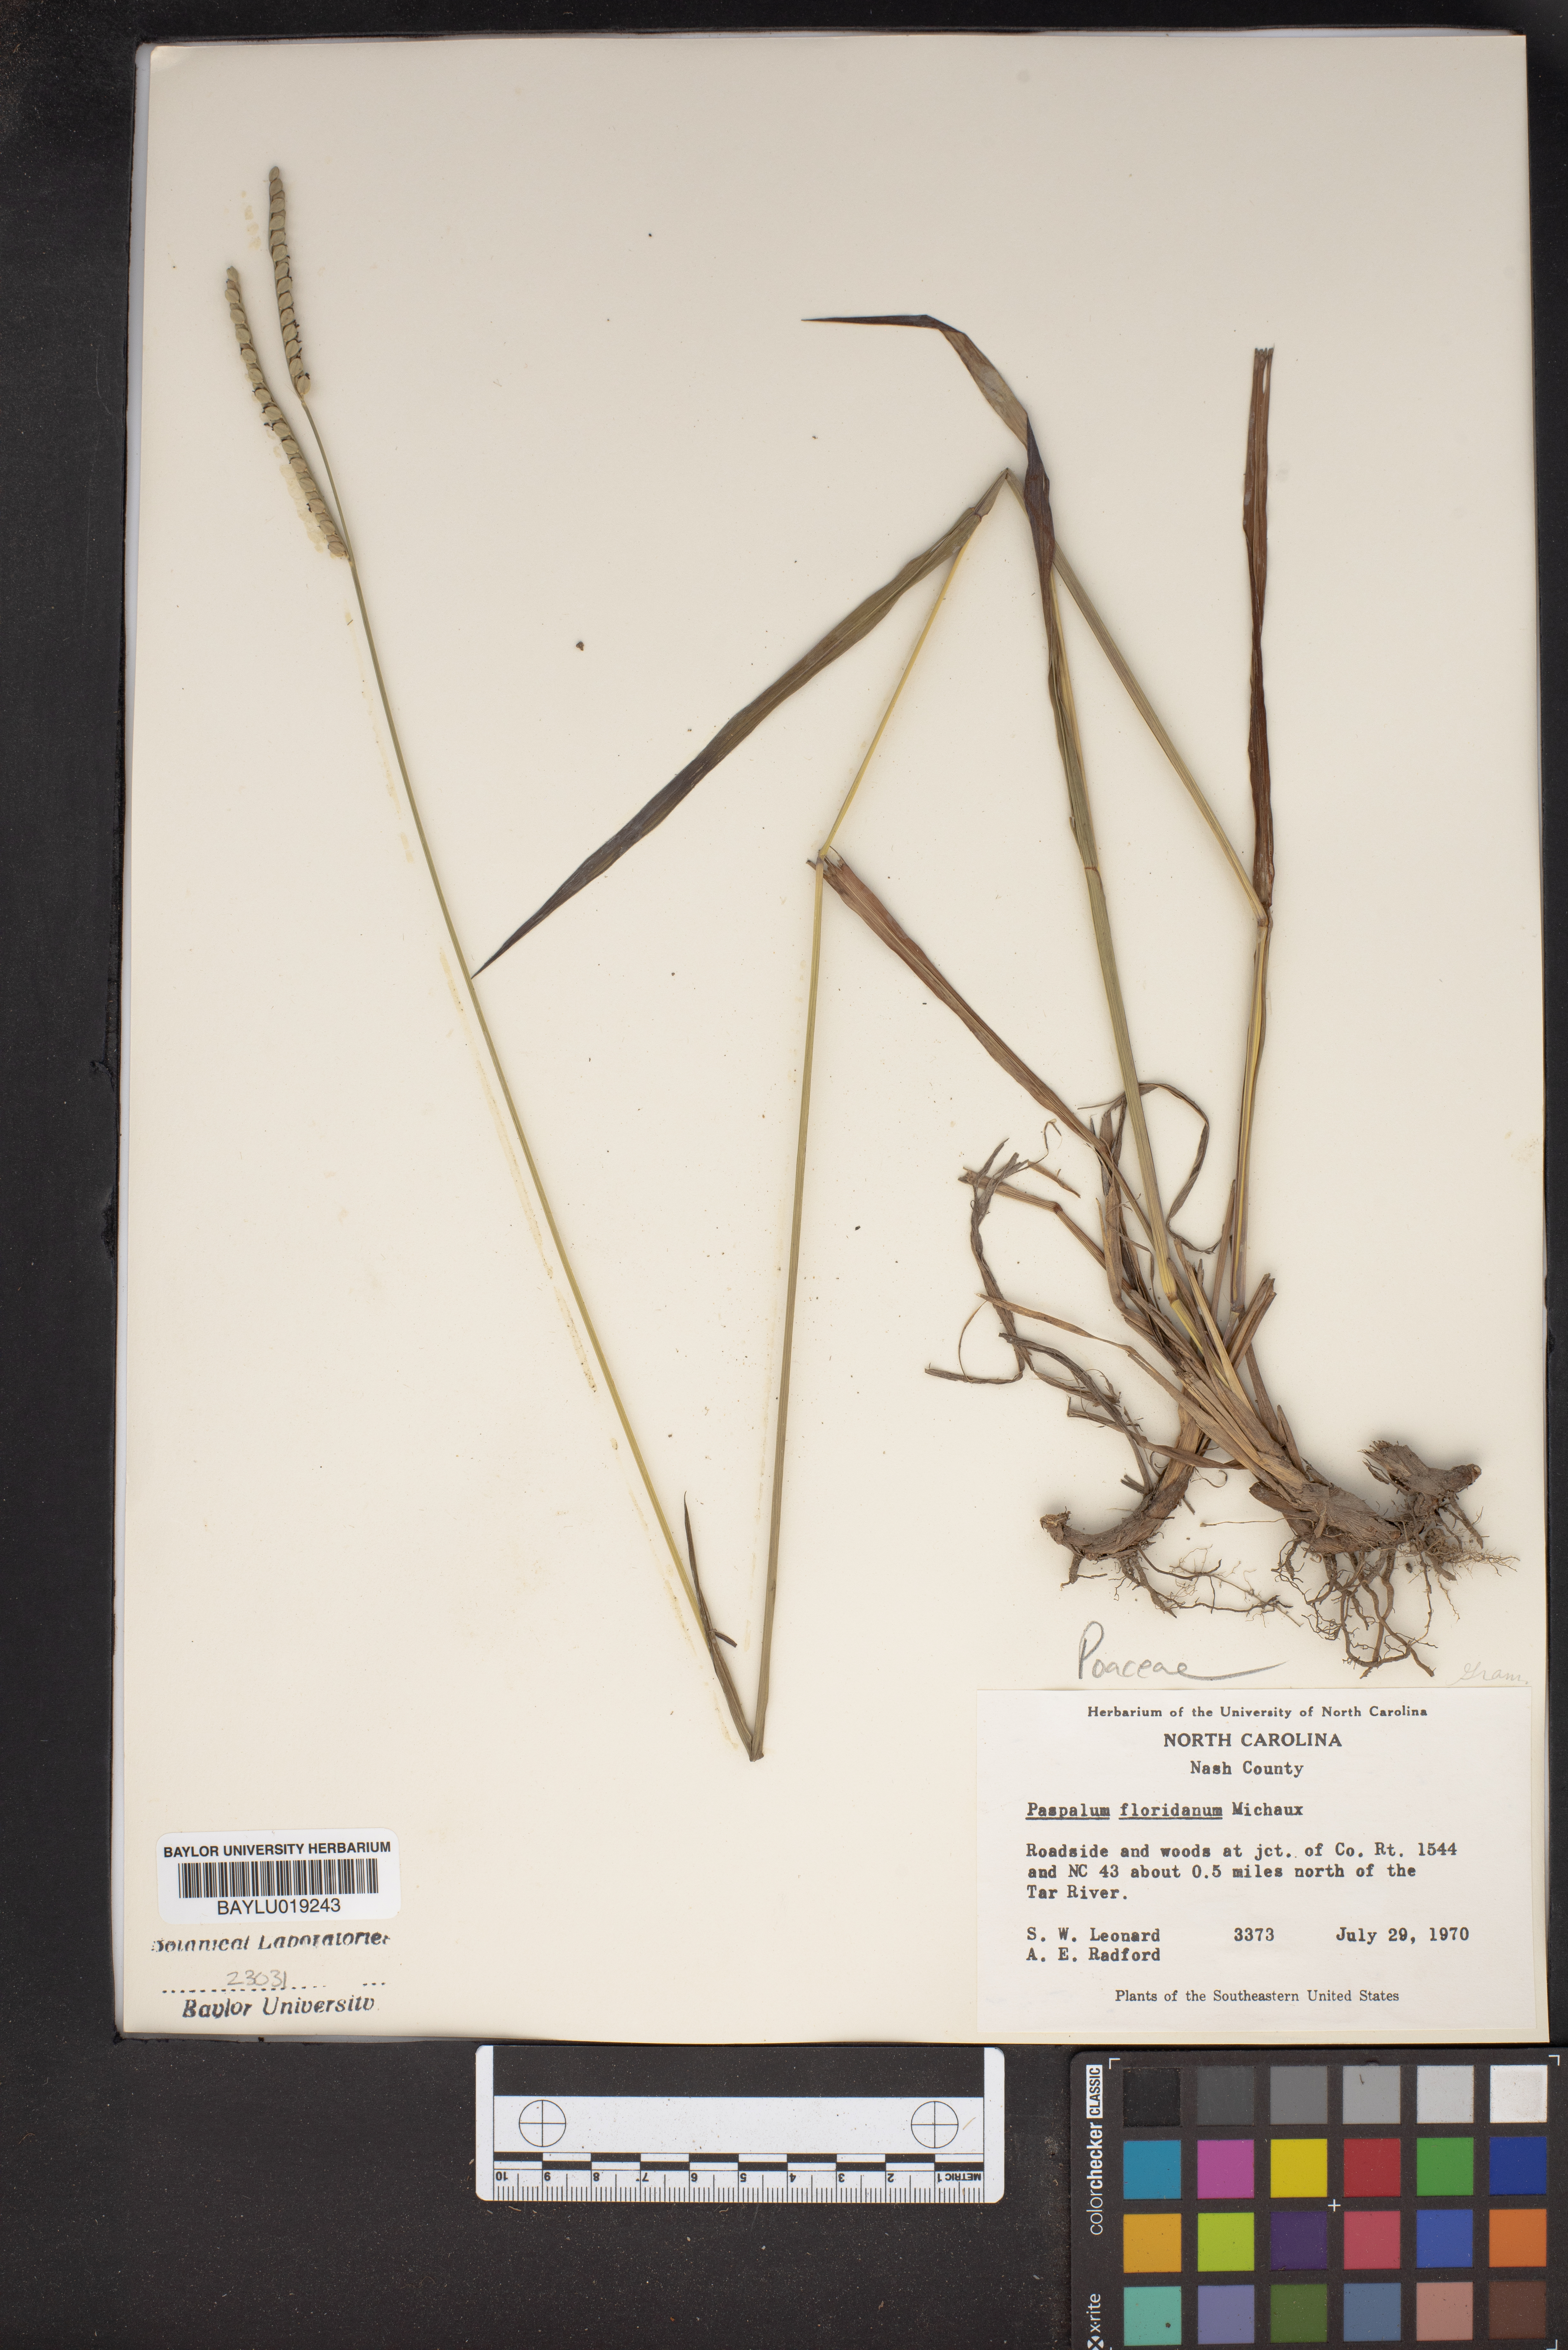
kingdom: Plantae
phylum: Tracheophyta
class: Liliopsida
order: Poales
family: Poaceae
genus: Paspalum
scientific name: Paspalum floridanum
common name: Florida paspalum
